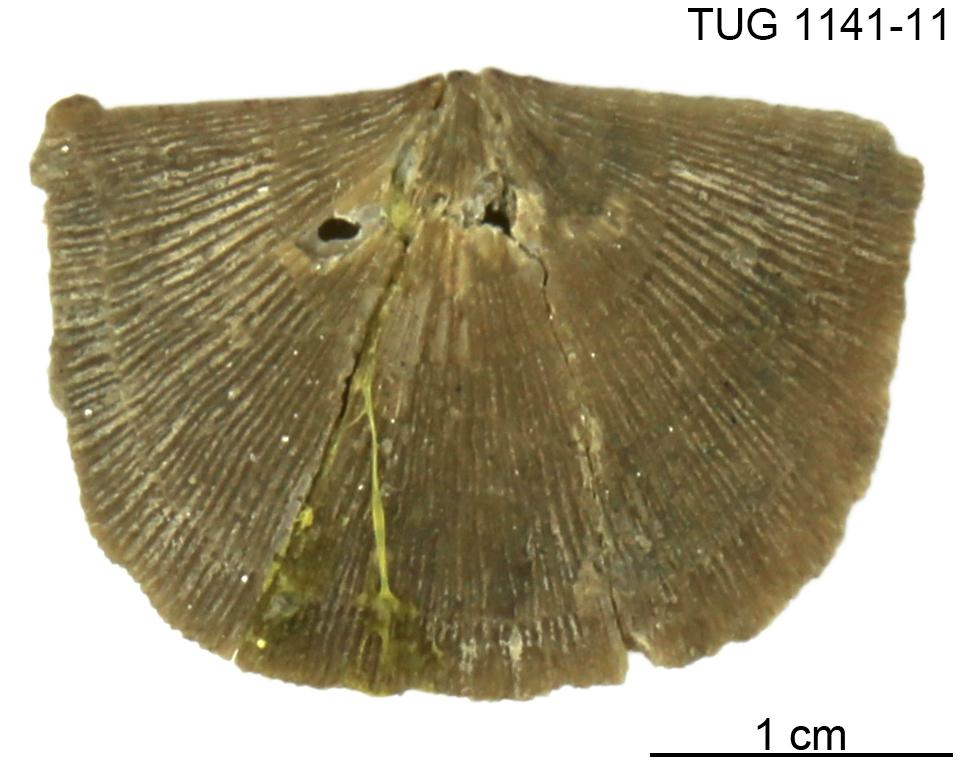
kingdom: Animalia
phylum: Brachiopoda
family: Gonambonitidae
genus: Gonambonites
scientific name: Gonambonites plana
